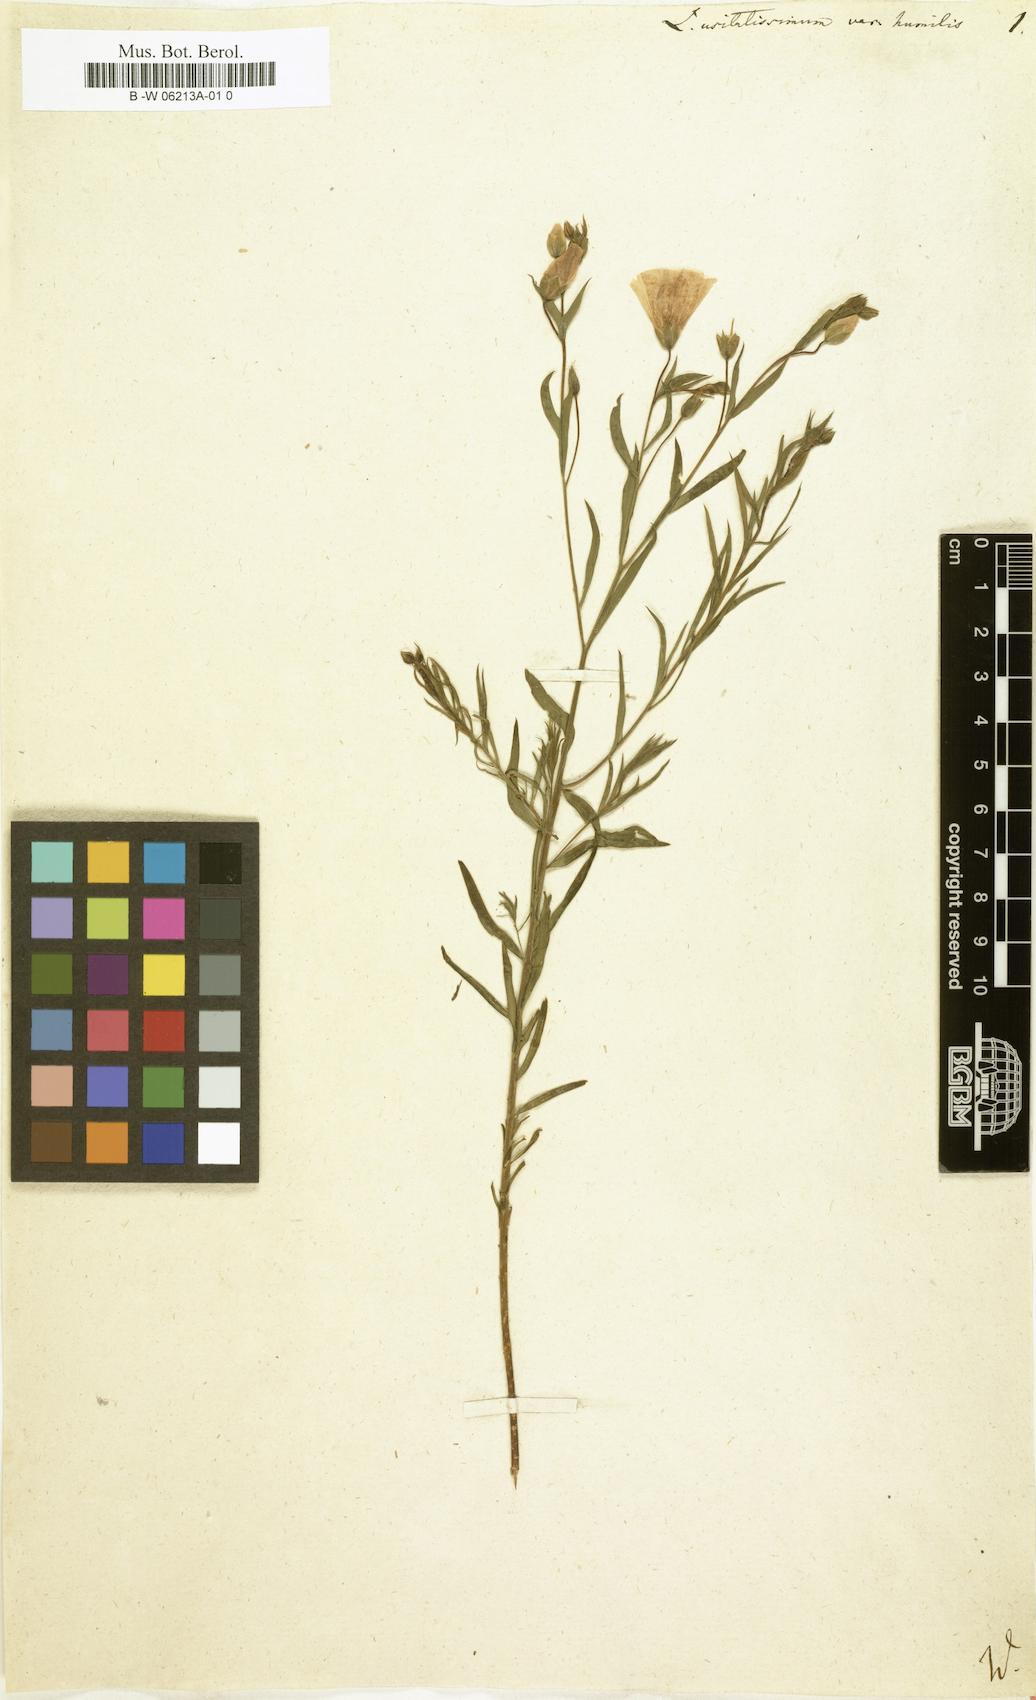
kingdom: Plantae
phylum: Tracheophyta
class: Magnoliopsida
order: Malpighiales
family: Linaceae
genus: Linum
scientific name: Linum usitatissimum
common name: Flax
